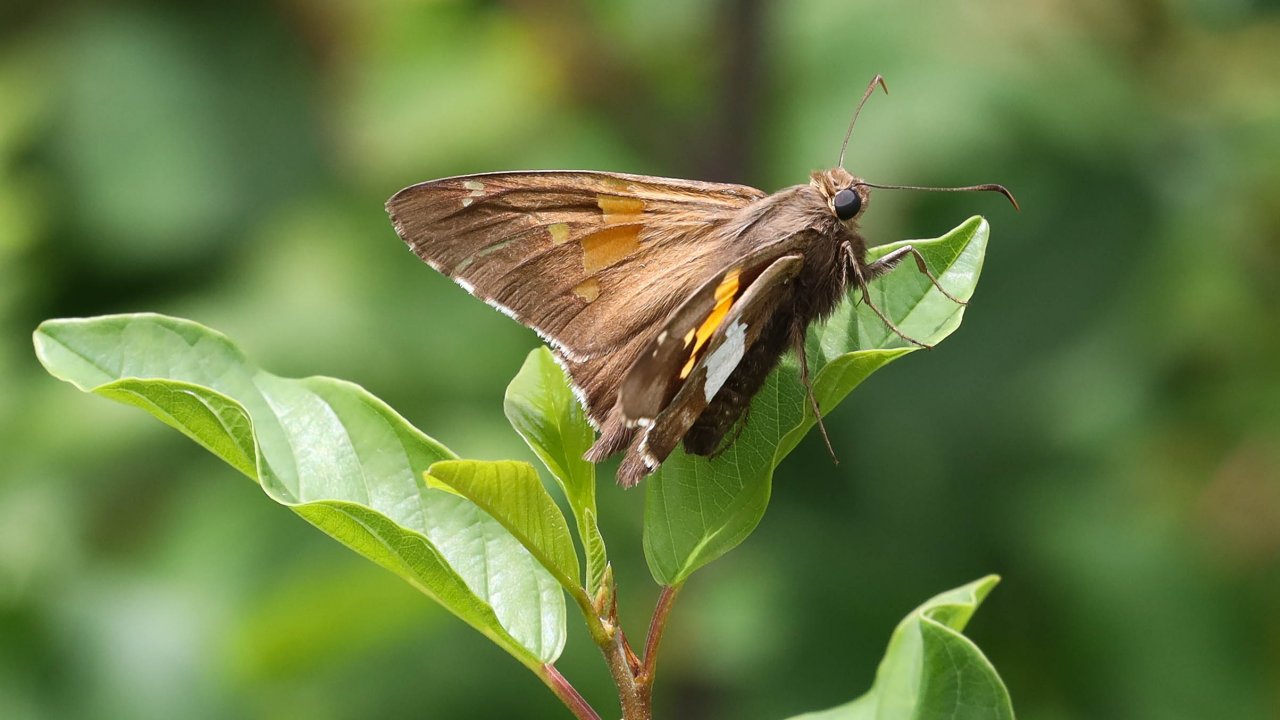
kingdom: Animalia
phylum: Arthropoda
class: Insecta
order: Lepidoptera
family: Hesperiidae
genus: Epargyreus
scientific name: Epargyreus clarus
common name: Silver-spotted Skipper
